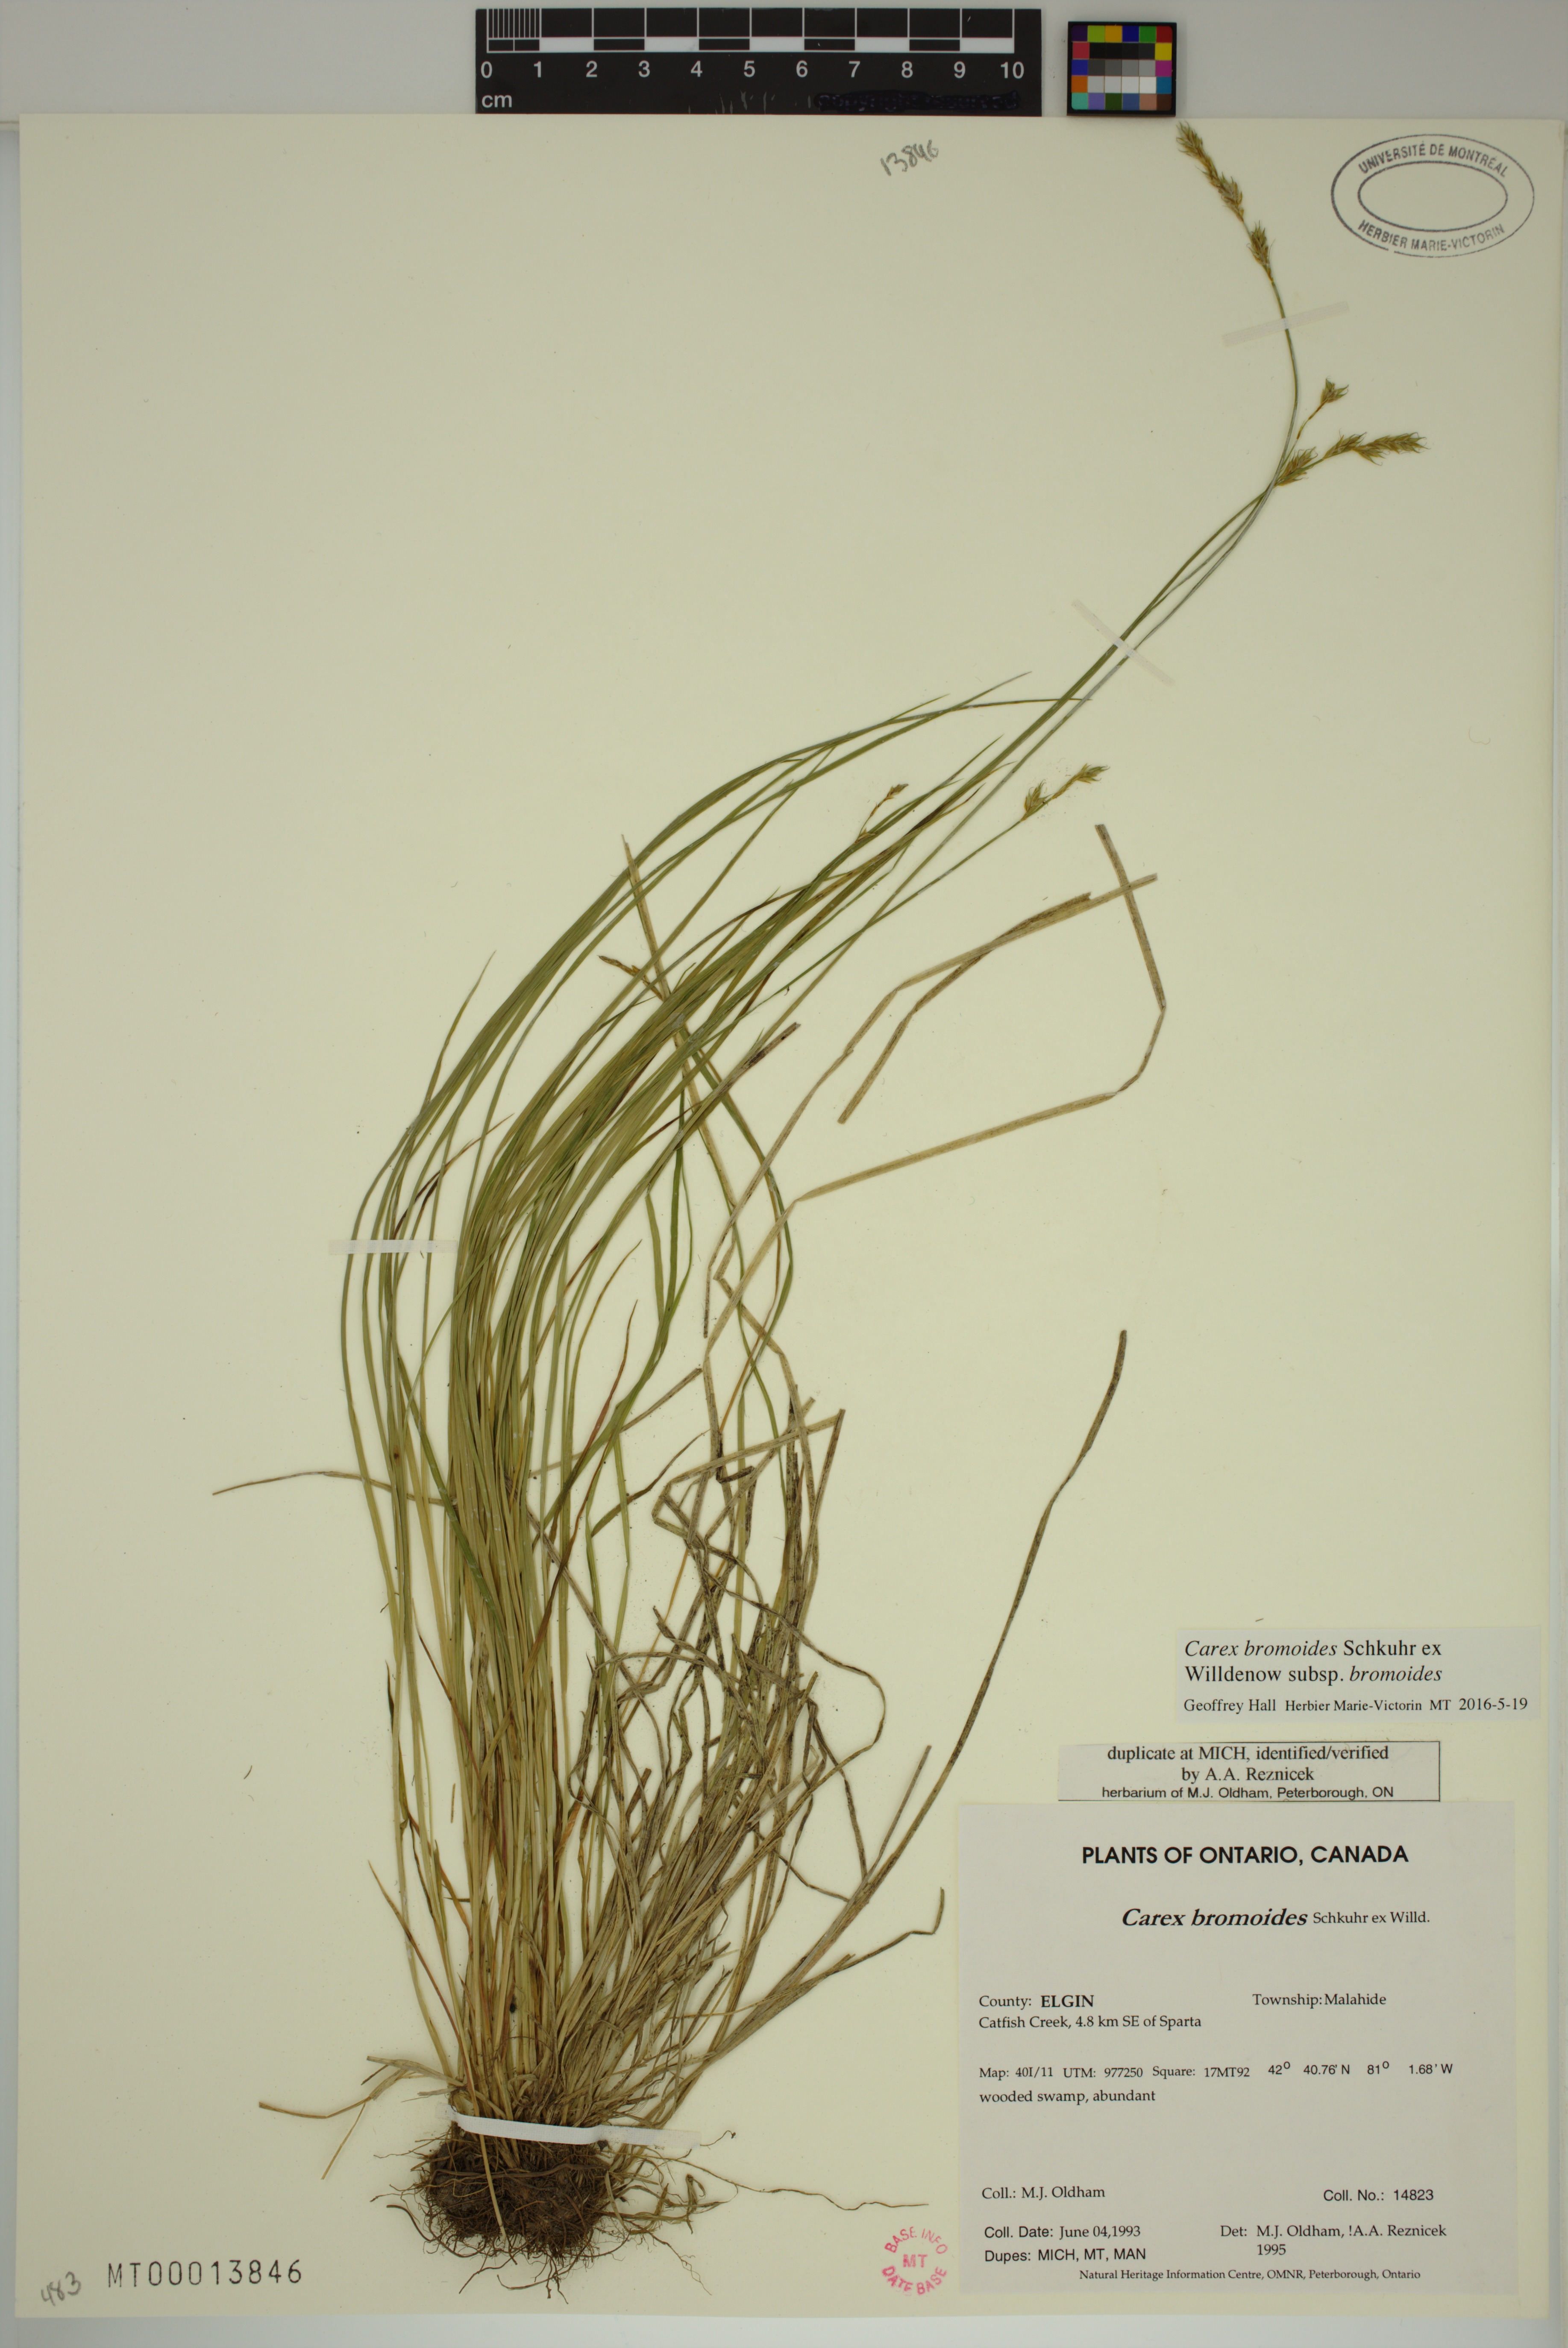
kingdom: Plantae
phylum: Tracheophyta
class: Liliopsida
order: Poales
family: Cyperaceae
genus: Carex
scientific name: Carex bromoides
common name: Brome hummock sedge
